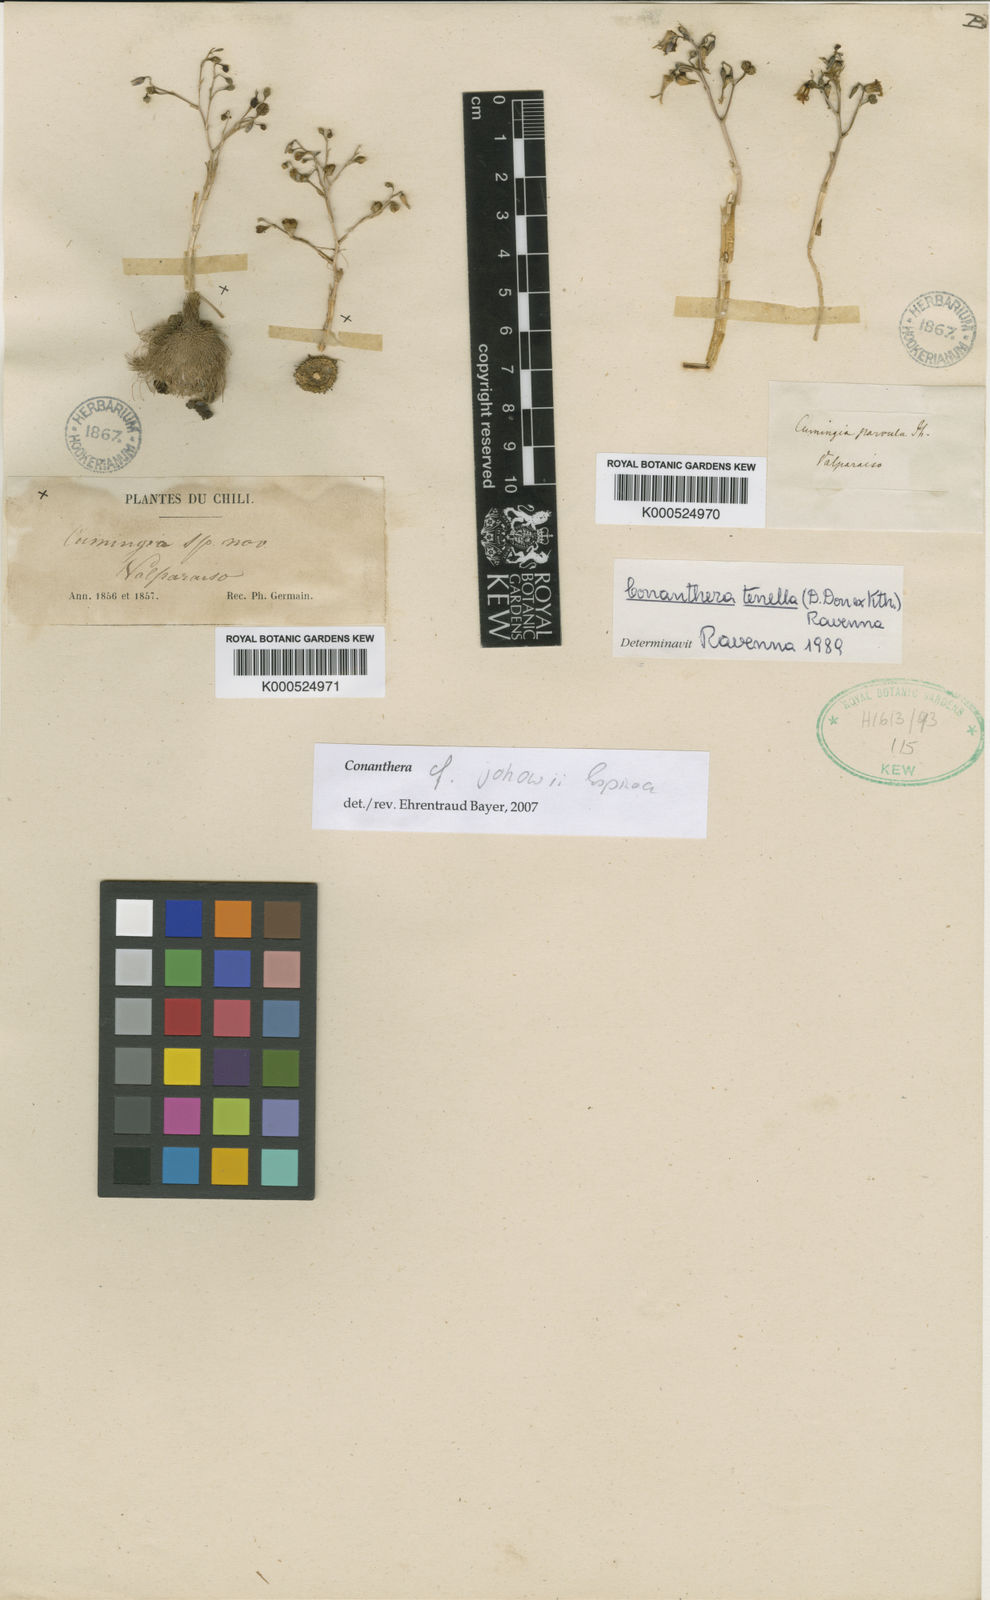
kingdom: Plantae
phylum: Tracheophyta
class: Liliopsida
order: Asparagales
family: Tecophilaeaceae
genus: Conanthera
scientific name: Conanthera parvula
